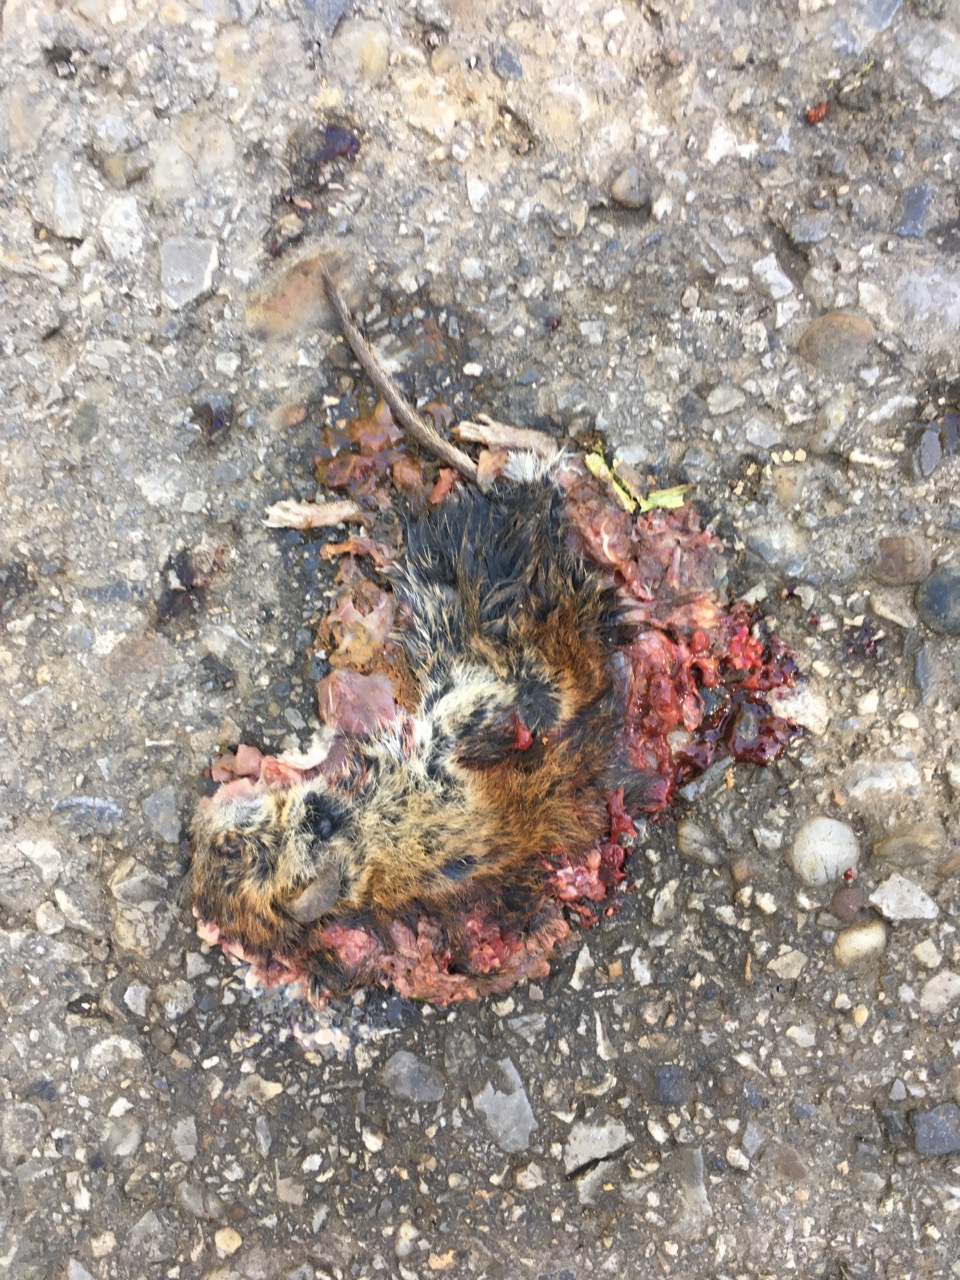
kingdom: Animalia
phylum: Chordata
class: Mammalia
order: Rodentia
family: Cricetidae
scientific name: Cricetidae
